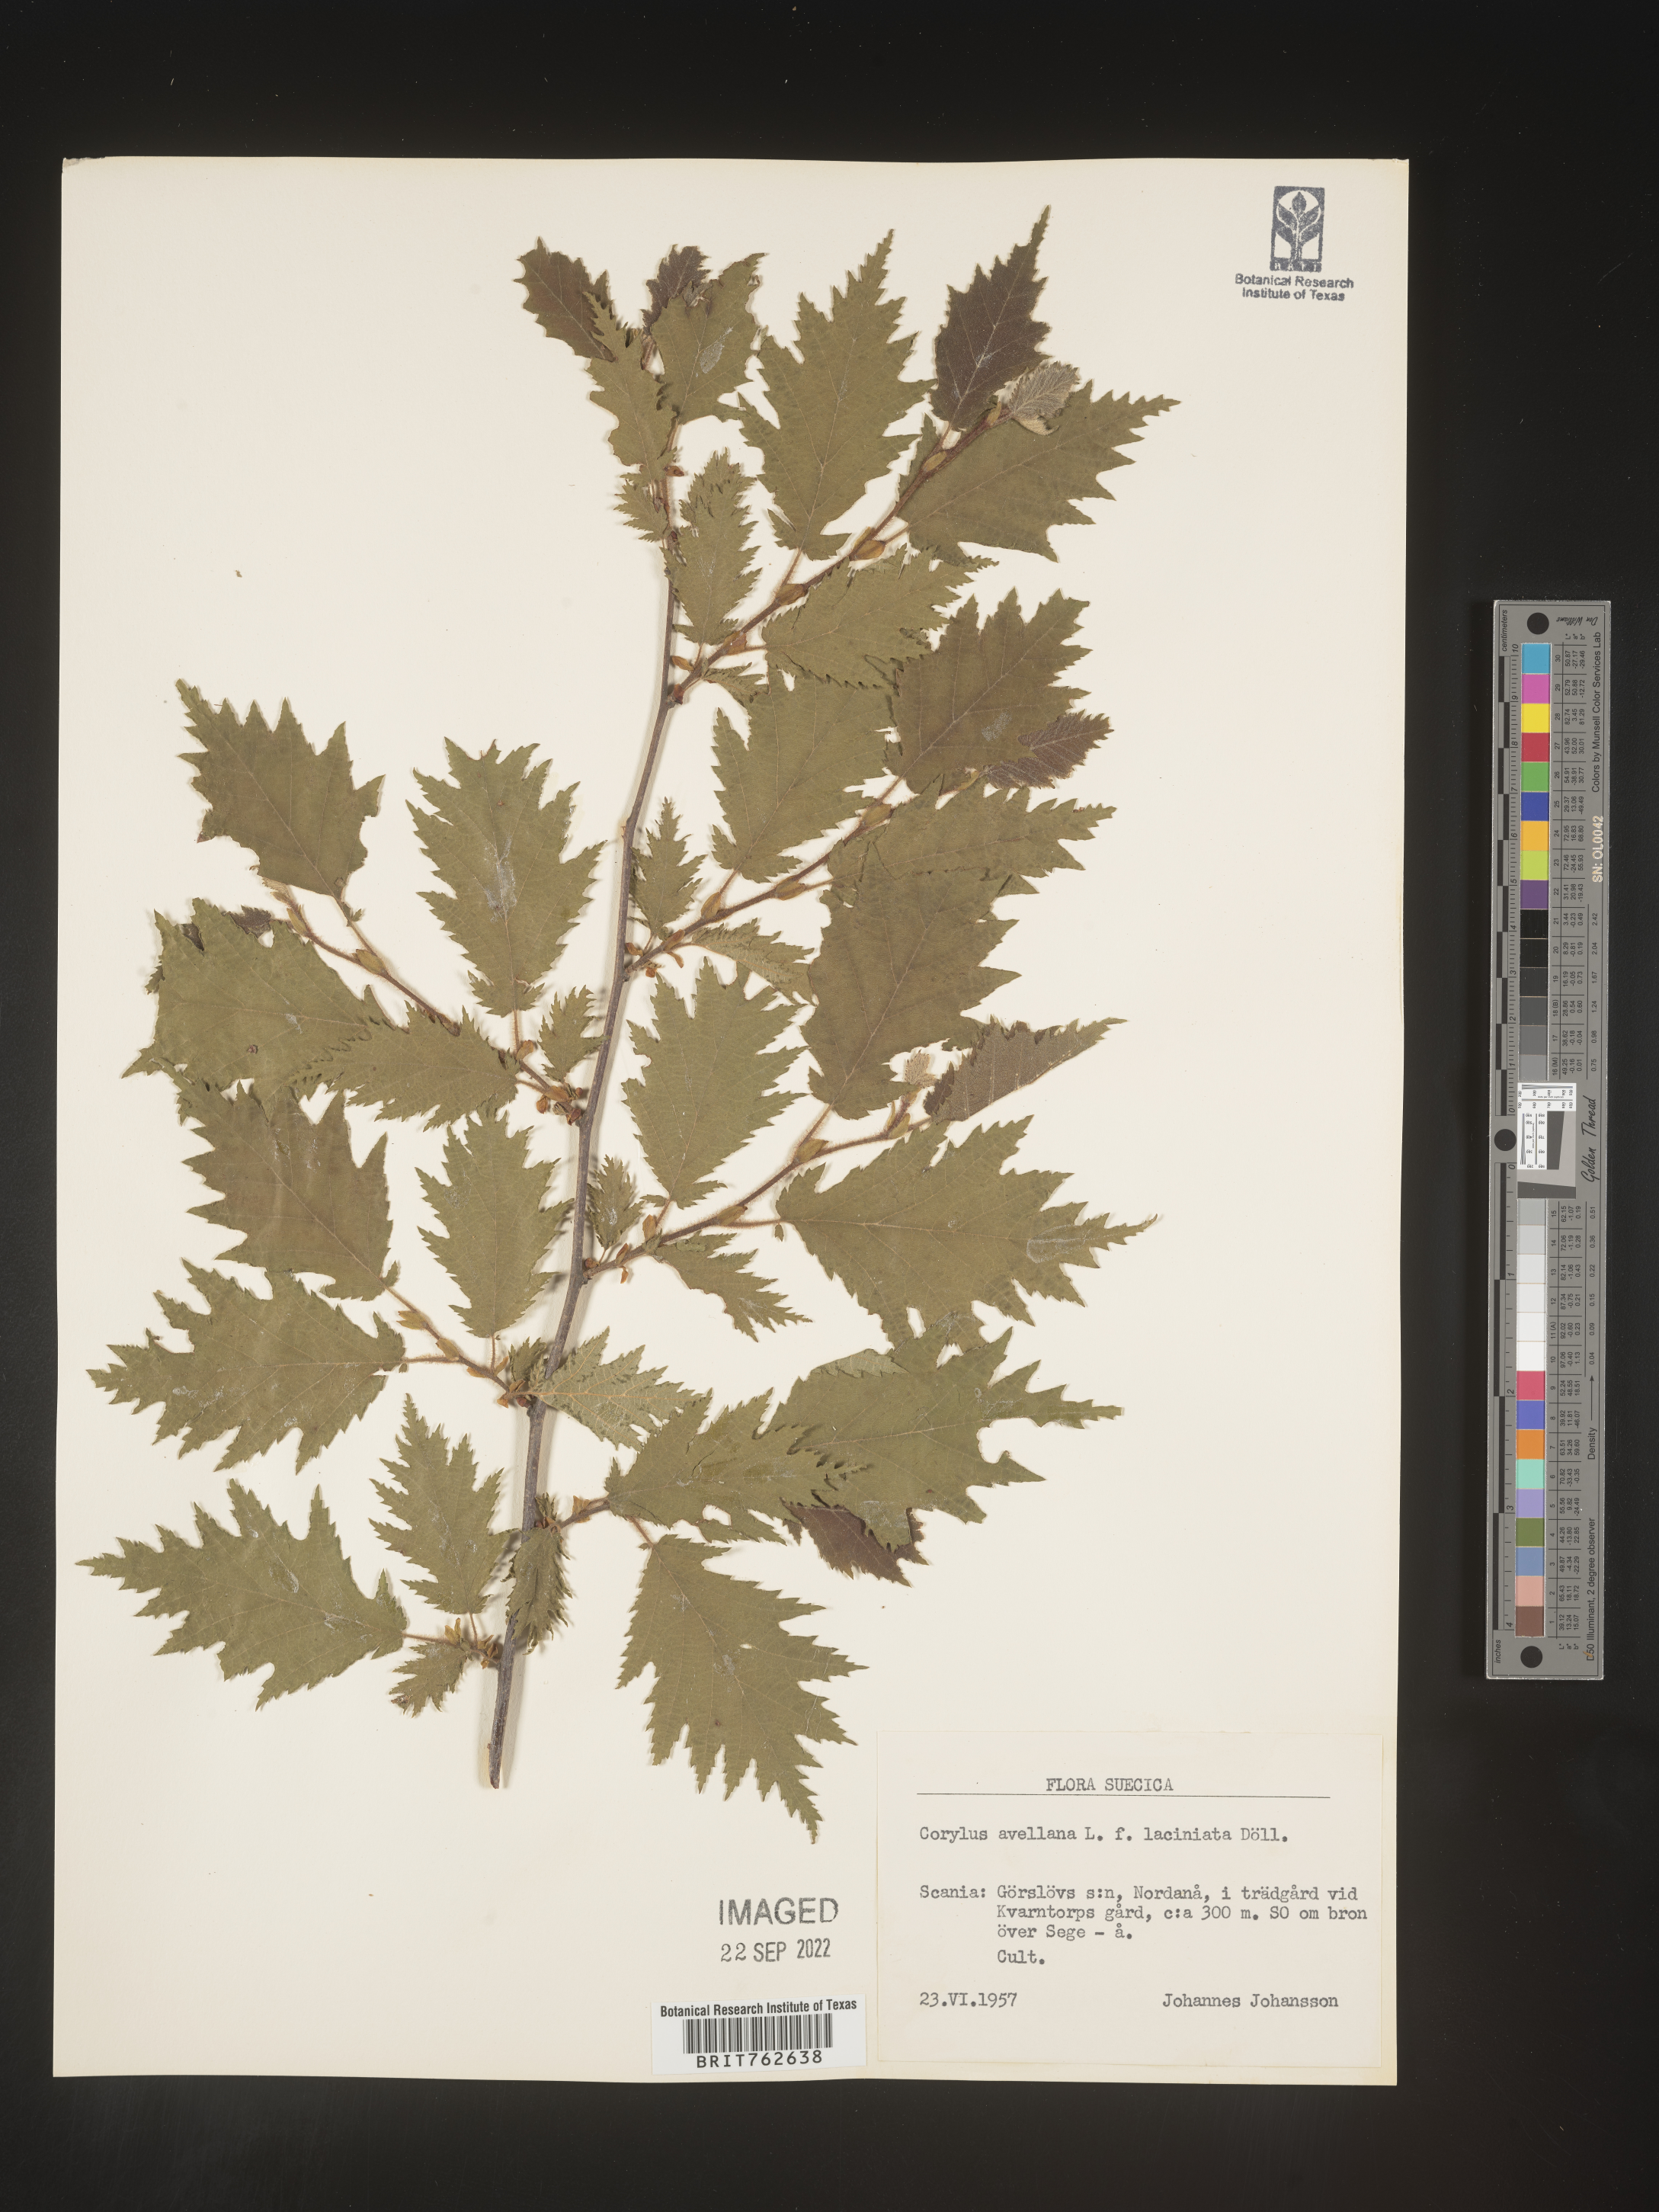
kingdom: Plantae
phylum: Tracheophyta
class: Magnoliopsida
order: Fagales
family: Betulaceae
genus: Corylus
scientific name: Corylus
